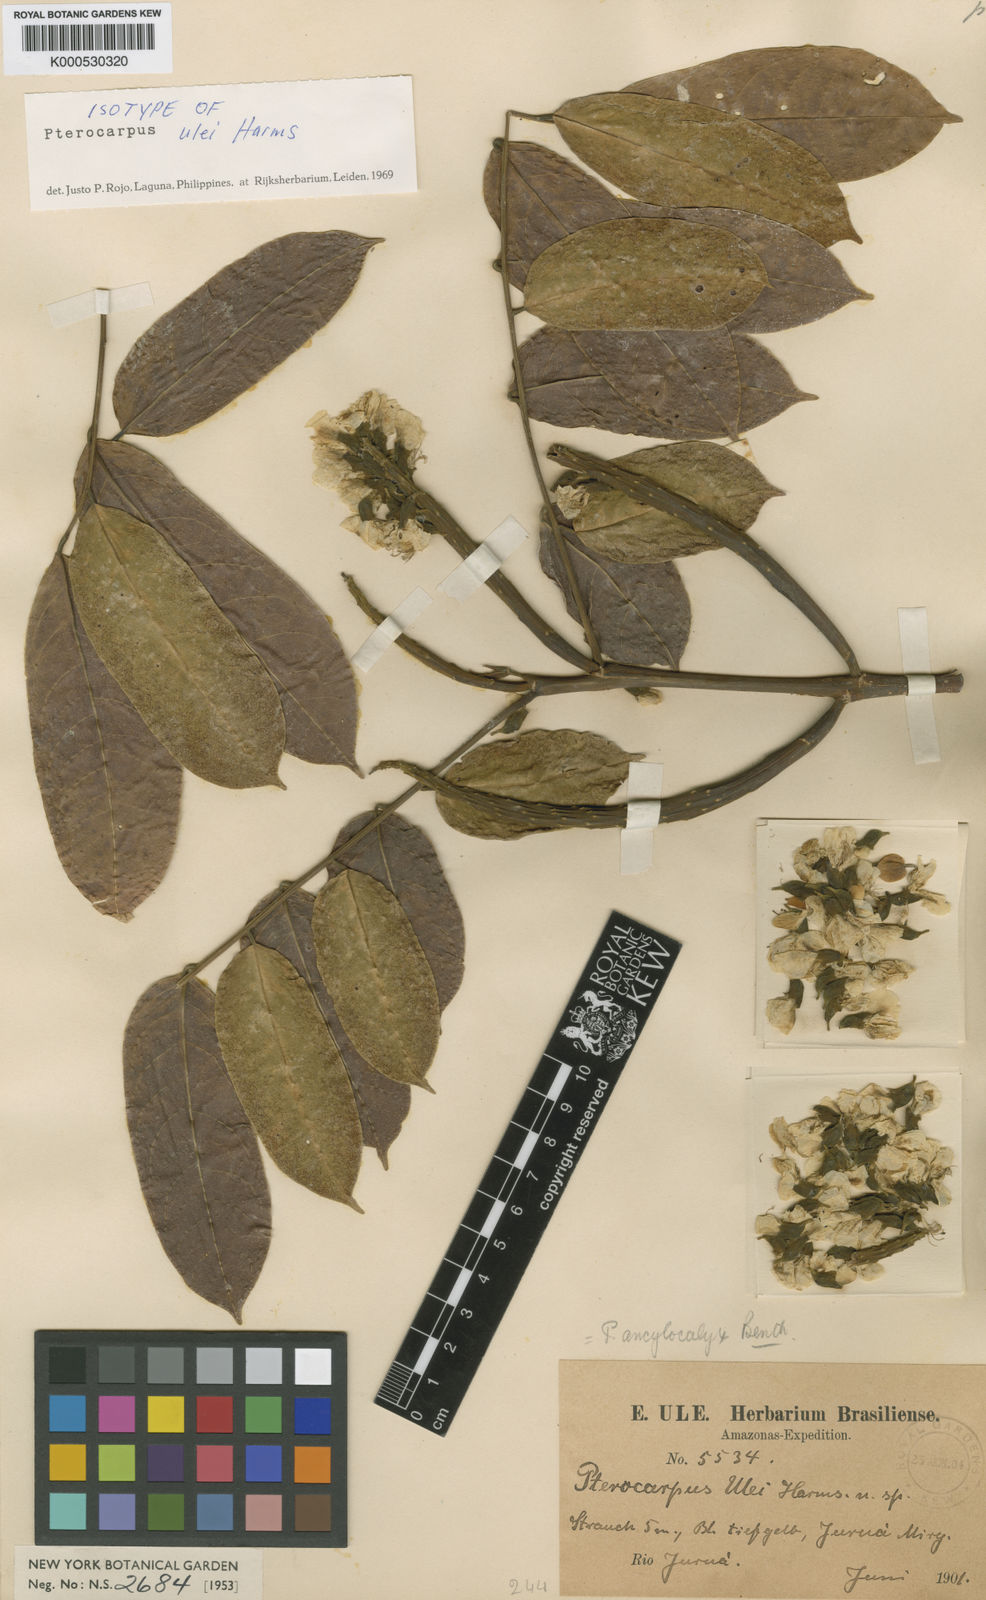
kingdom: Plantae
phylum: Tracheophyta
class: Magnoliopsida
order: Fabales
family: Fabaceae
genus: Pterocarpus
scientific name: Pterocarpus amazonum
